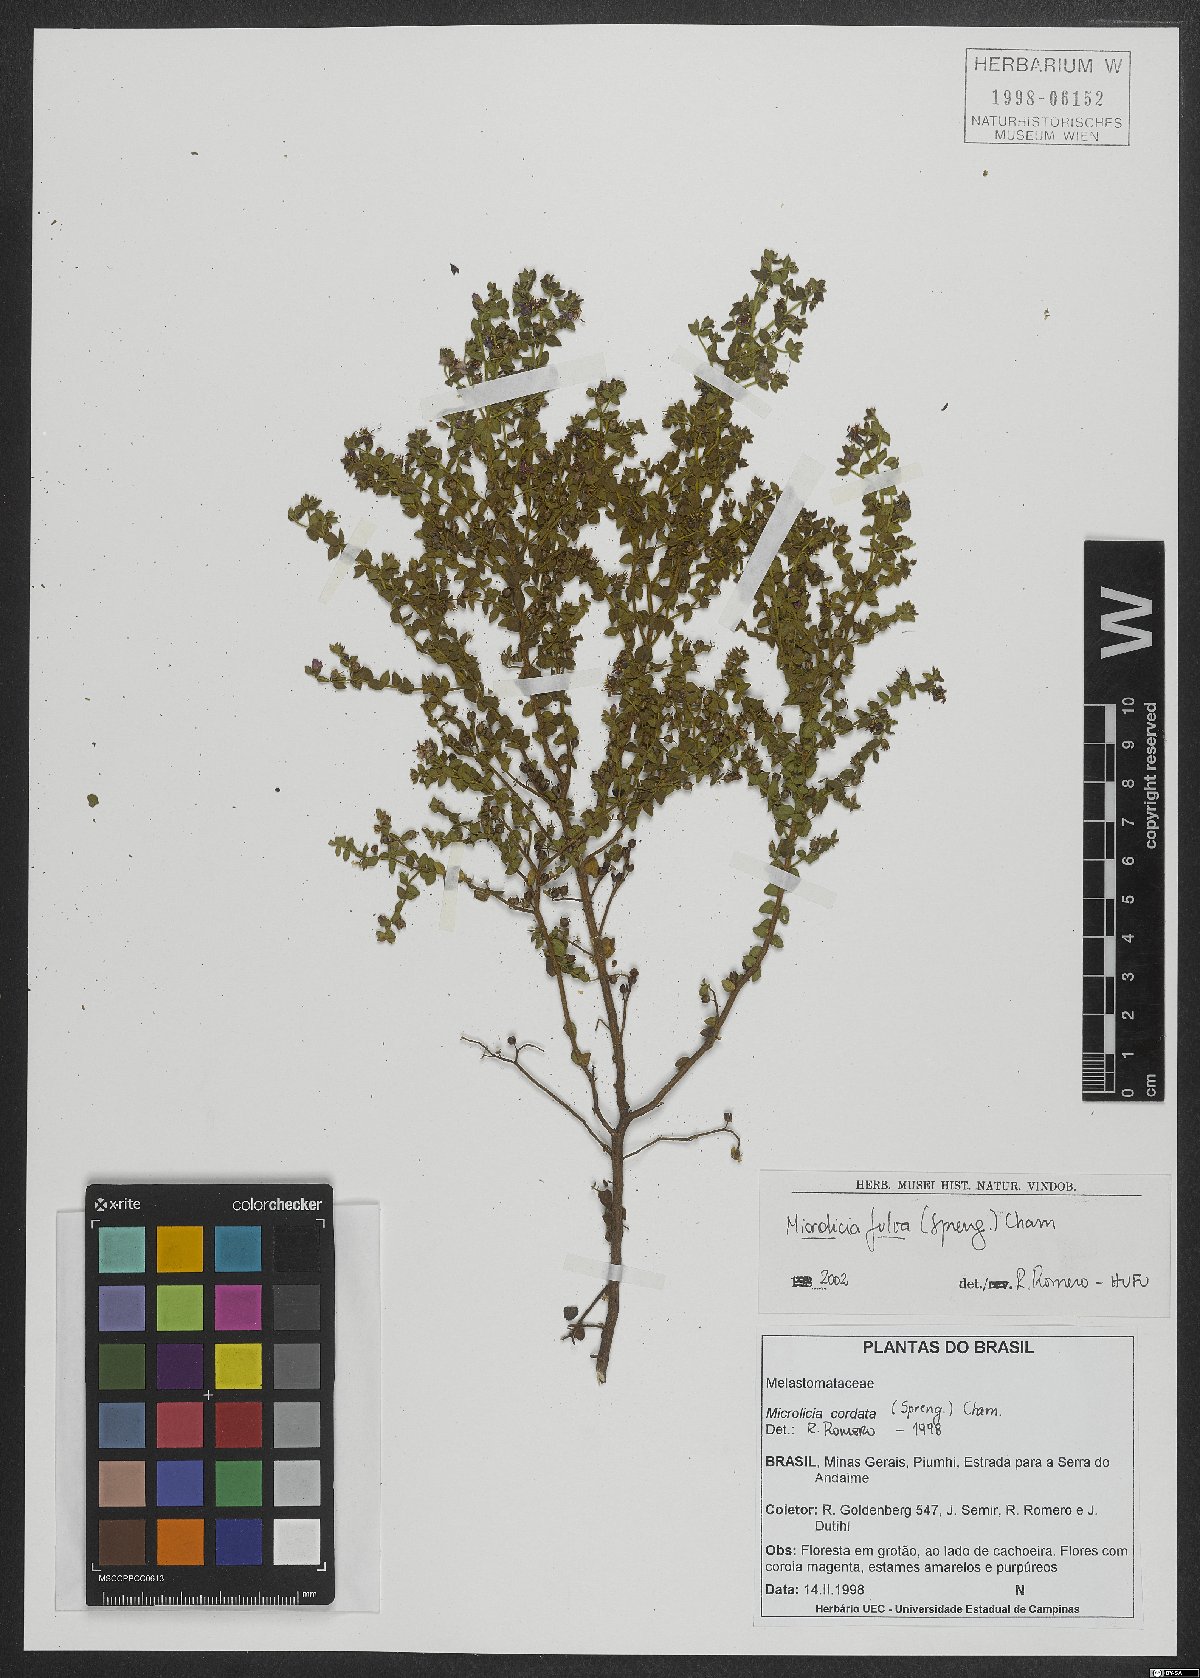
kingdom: Plantae
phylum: Tracheophyta
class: Magnoliopsida
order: Myrtales
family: Melastomataceae
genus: Microlicia
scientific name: Microlicia fulva
